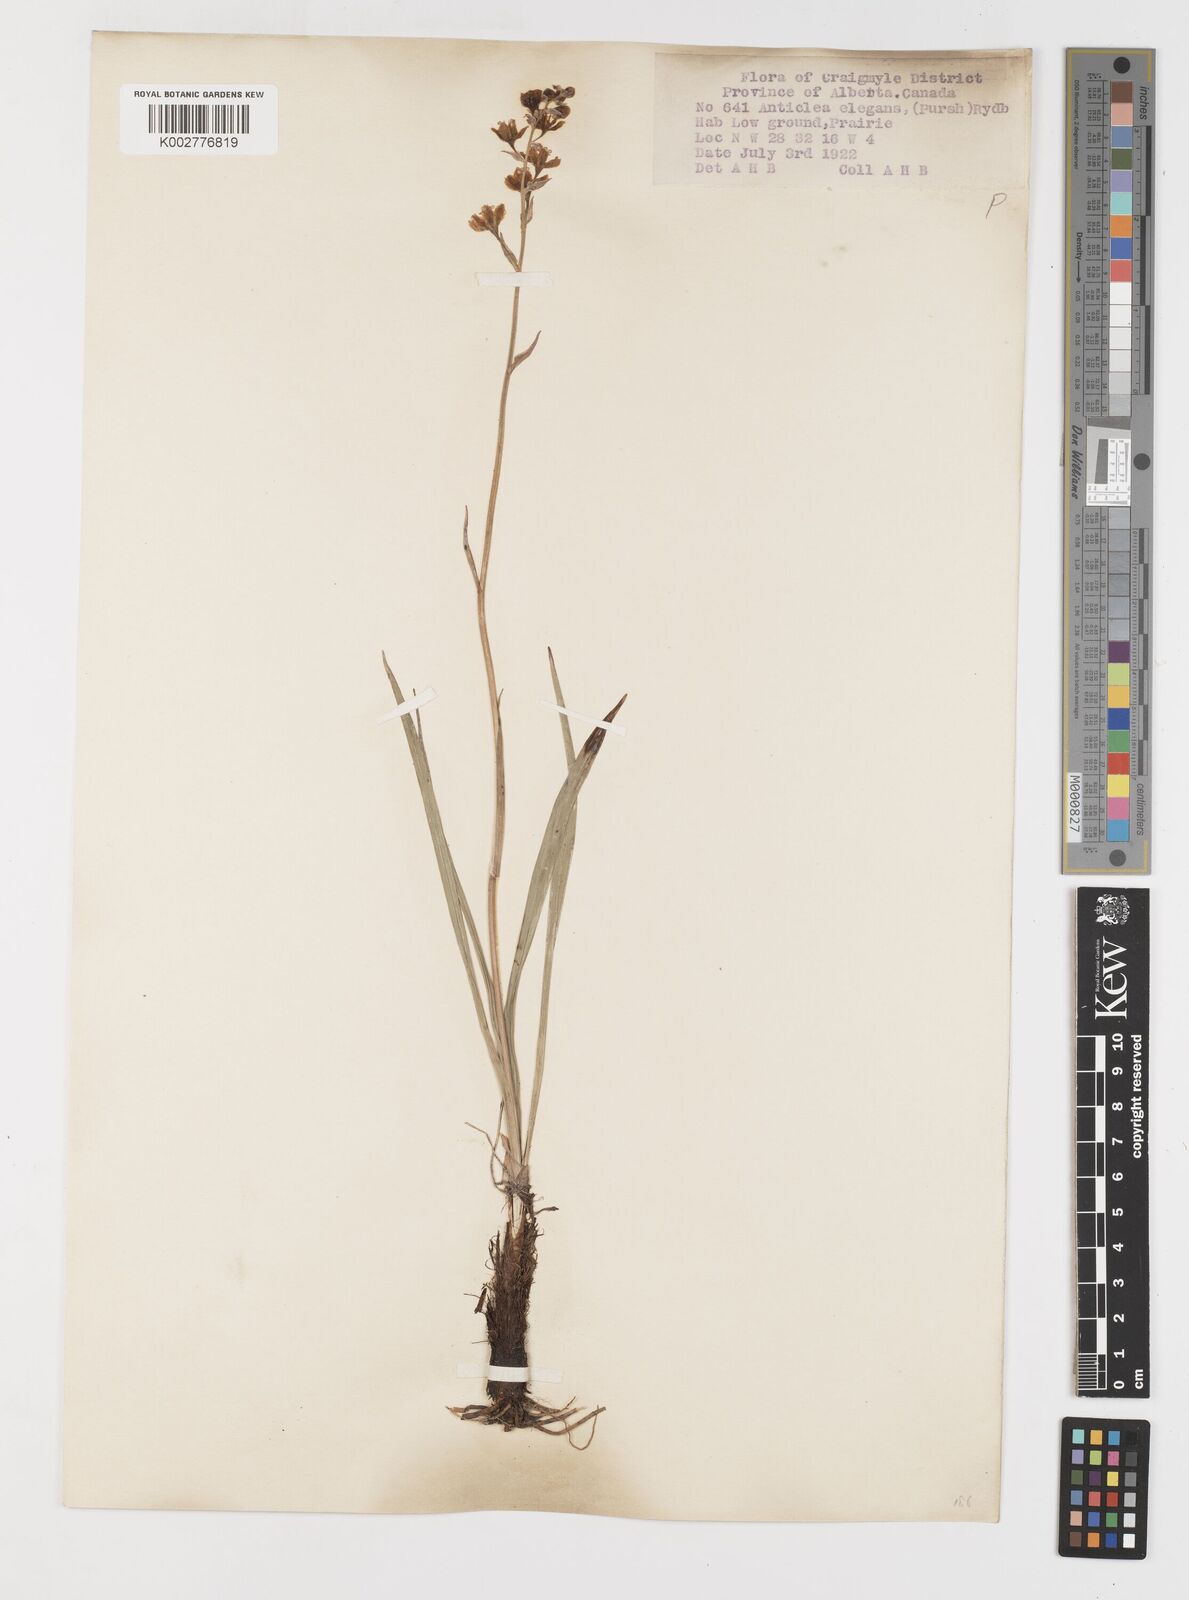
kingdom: Plantae
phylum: Tracheophyta
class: Liliopsida
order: Liliales
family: Melanthiaceae
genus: Anticlea
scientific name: Anticlea elegans
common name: Mountain death camas
